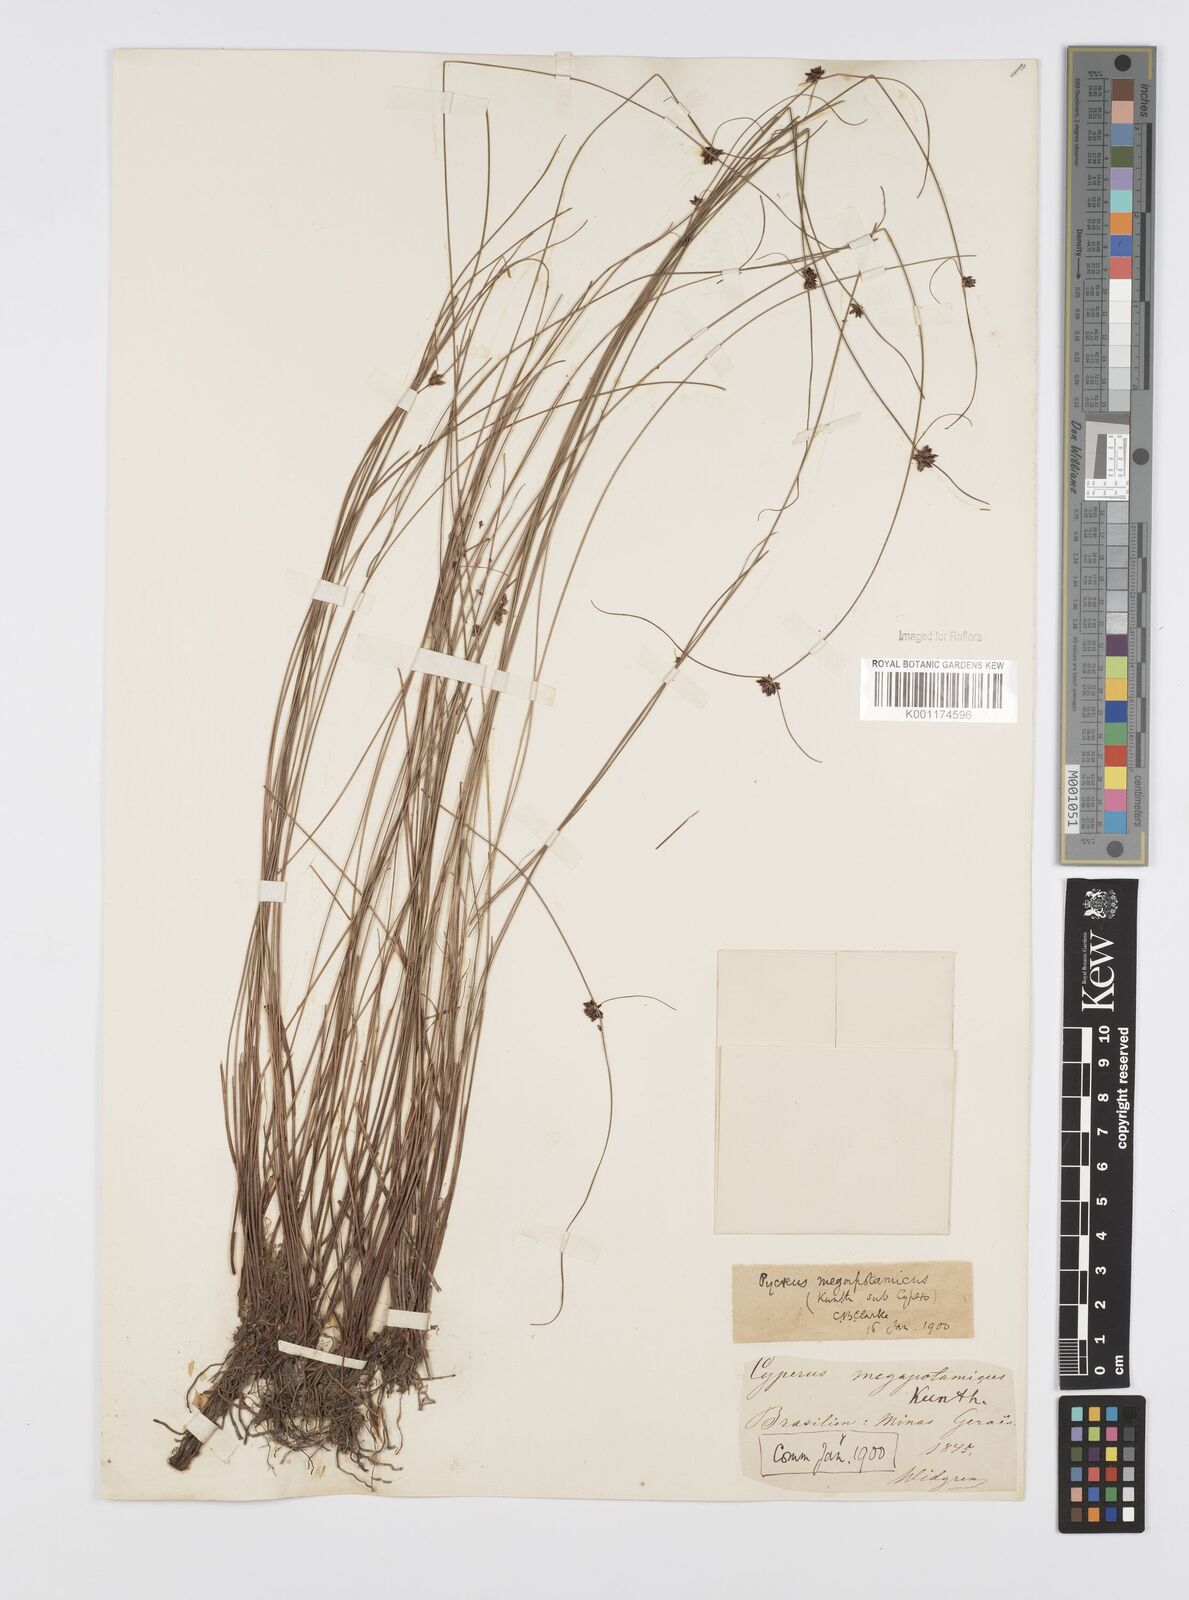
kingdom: Plantae
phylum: Tracheophyta
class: Liliopsida
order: Poales
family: Cyperaceae
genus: Cyperus
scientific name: Cyperus megapotamicus
